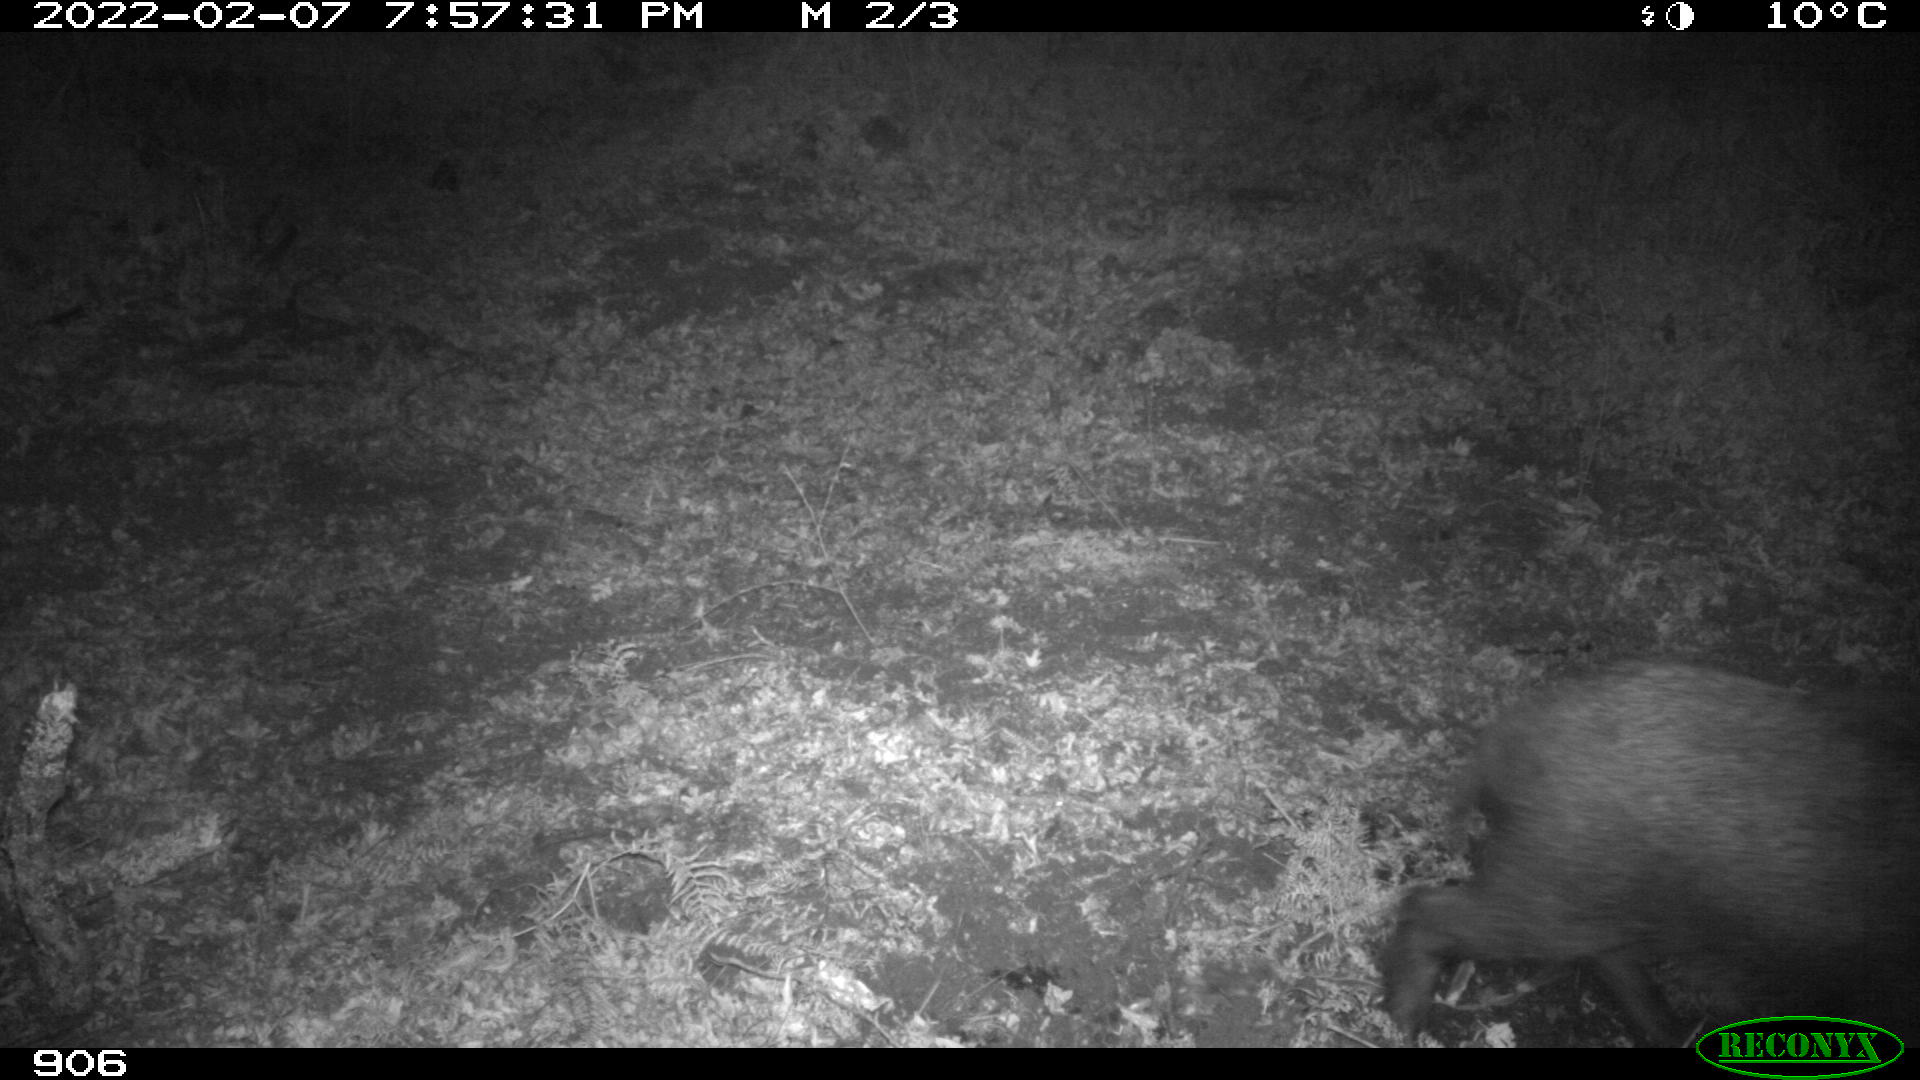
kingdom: Animalia
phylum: Chordata
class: Mammalia
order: Artiodactyla
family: Suidae
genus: Sus
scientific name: Sus scrofa
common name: Wild boar
